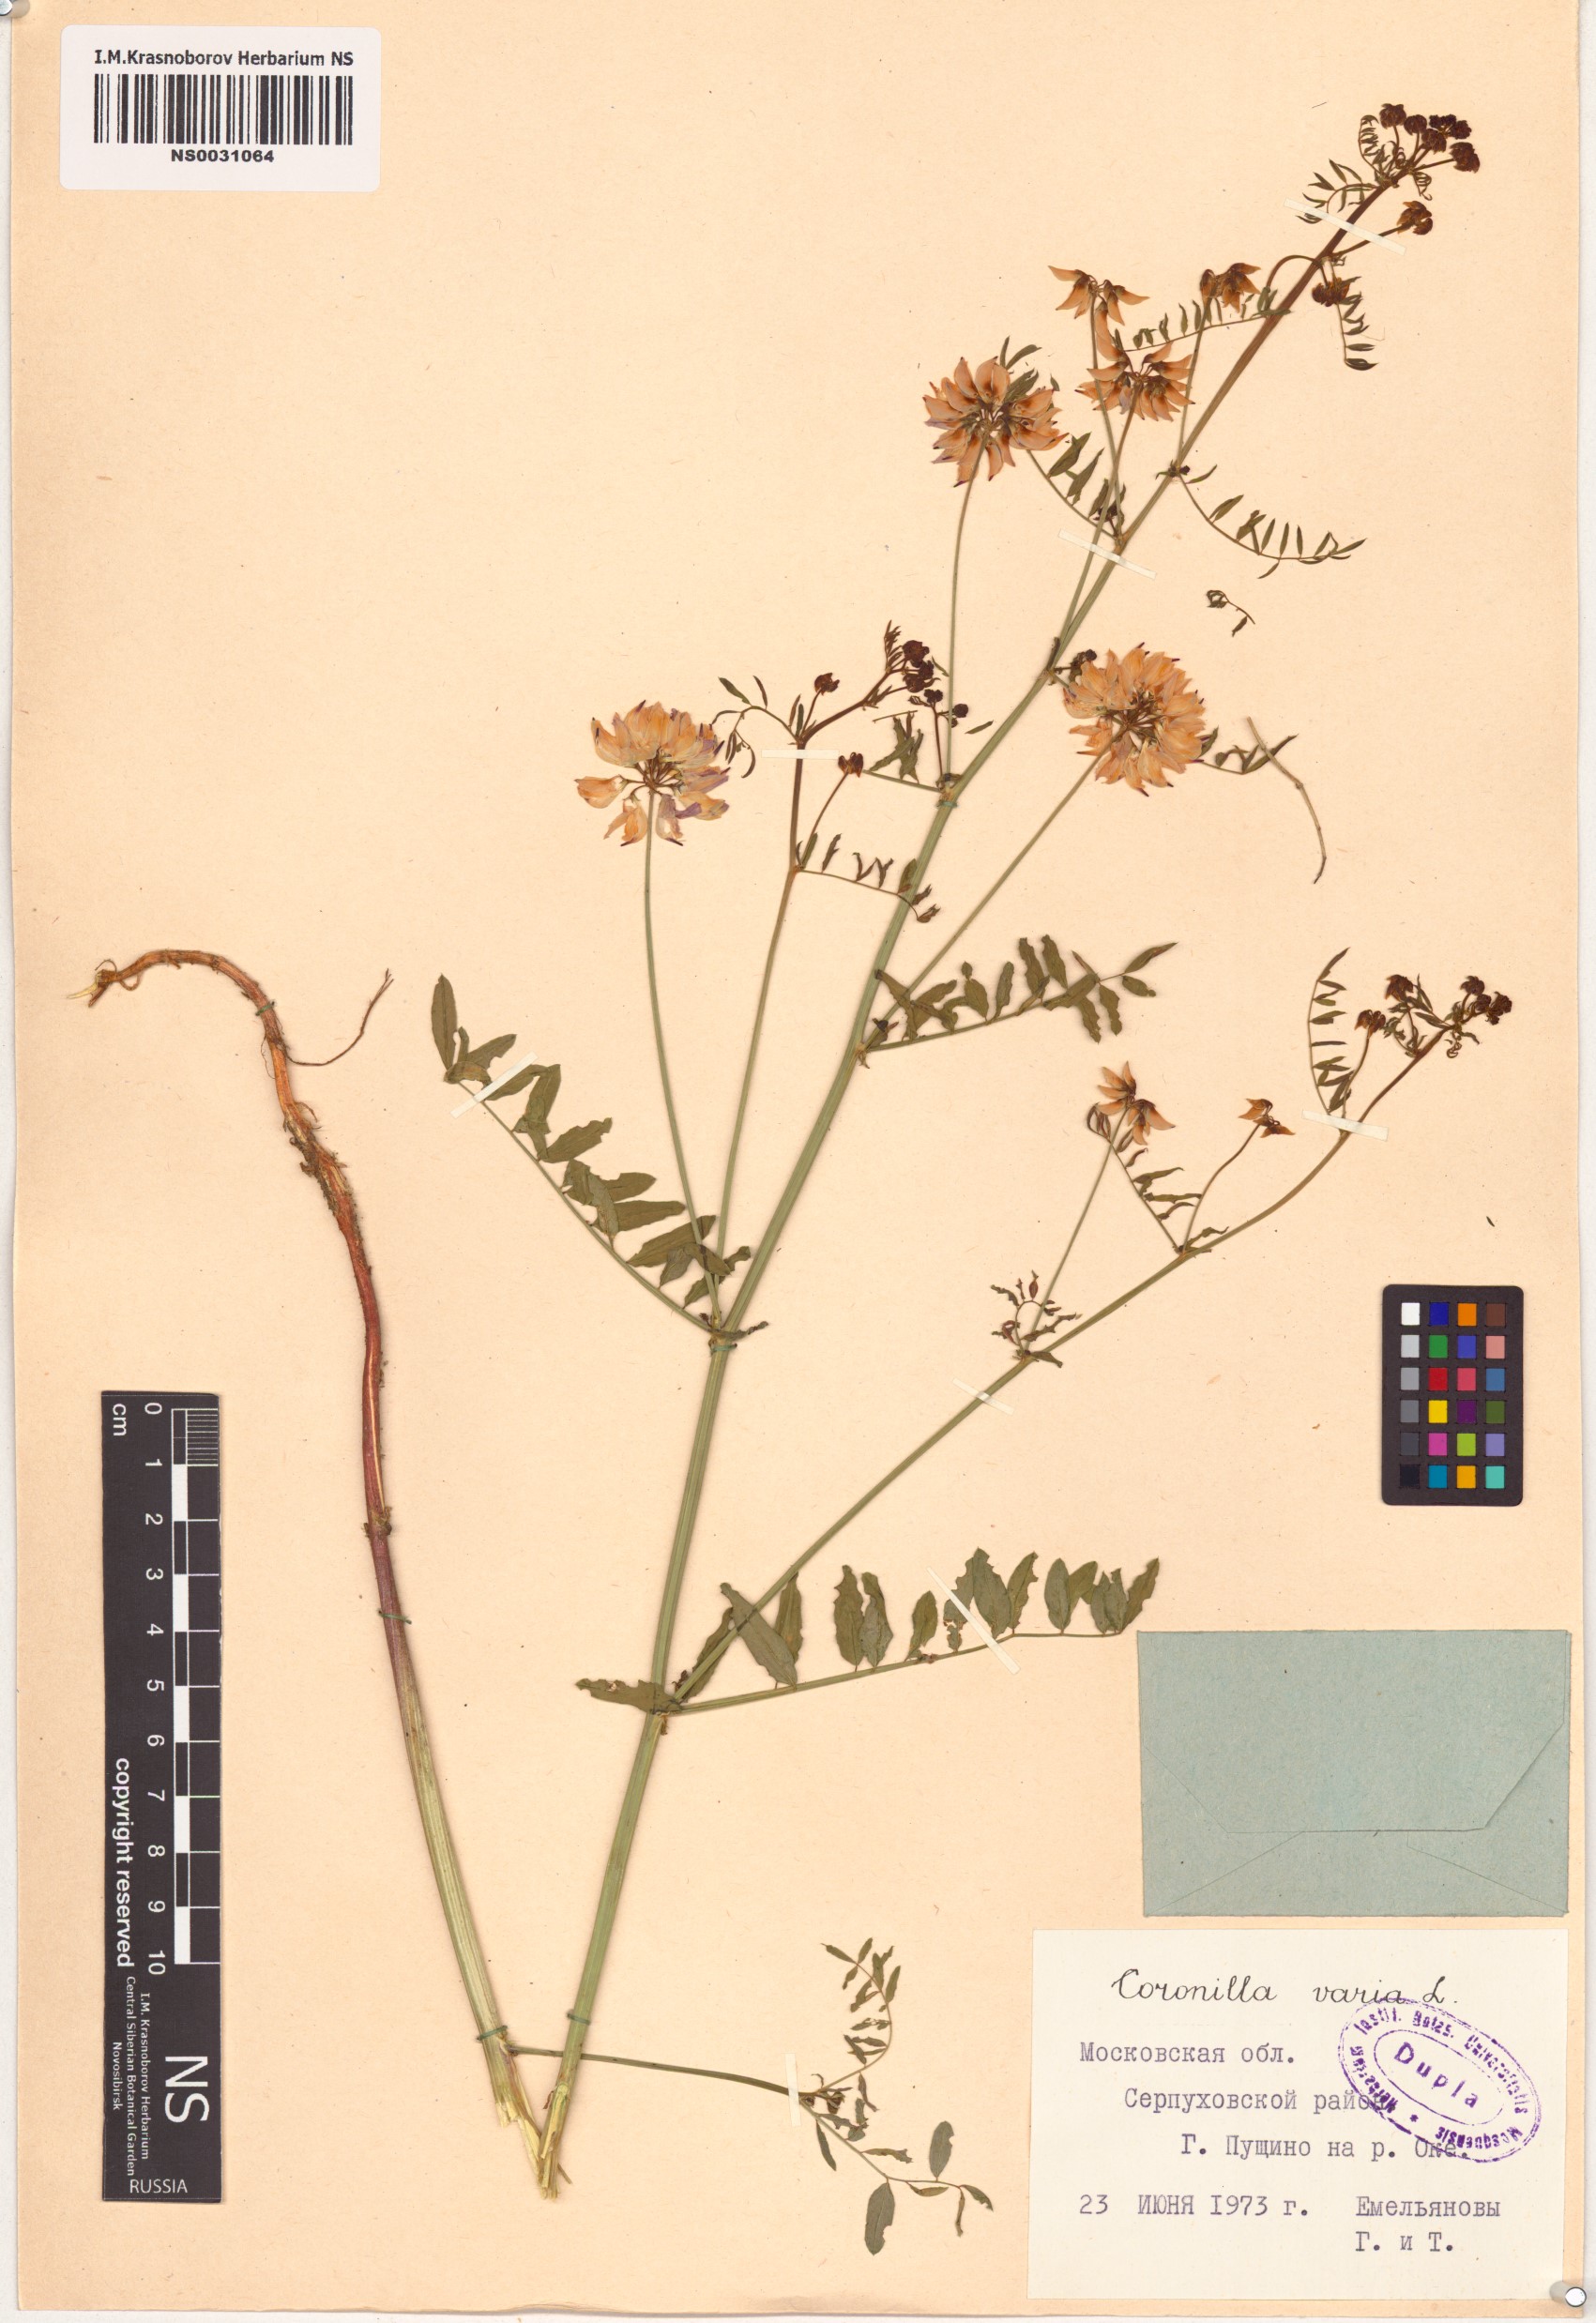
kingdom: Plantae
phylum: Tracheophyta
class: Magnoliopsida
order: Fabales
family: Fabaceae
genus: Coronilla
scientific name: Coronilla varia
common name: Crownvetch
